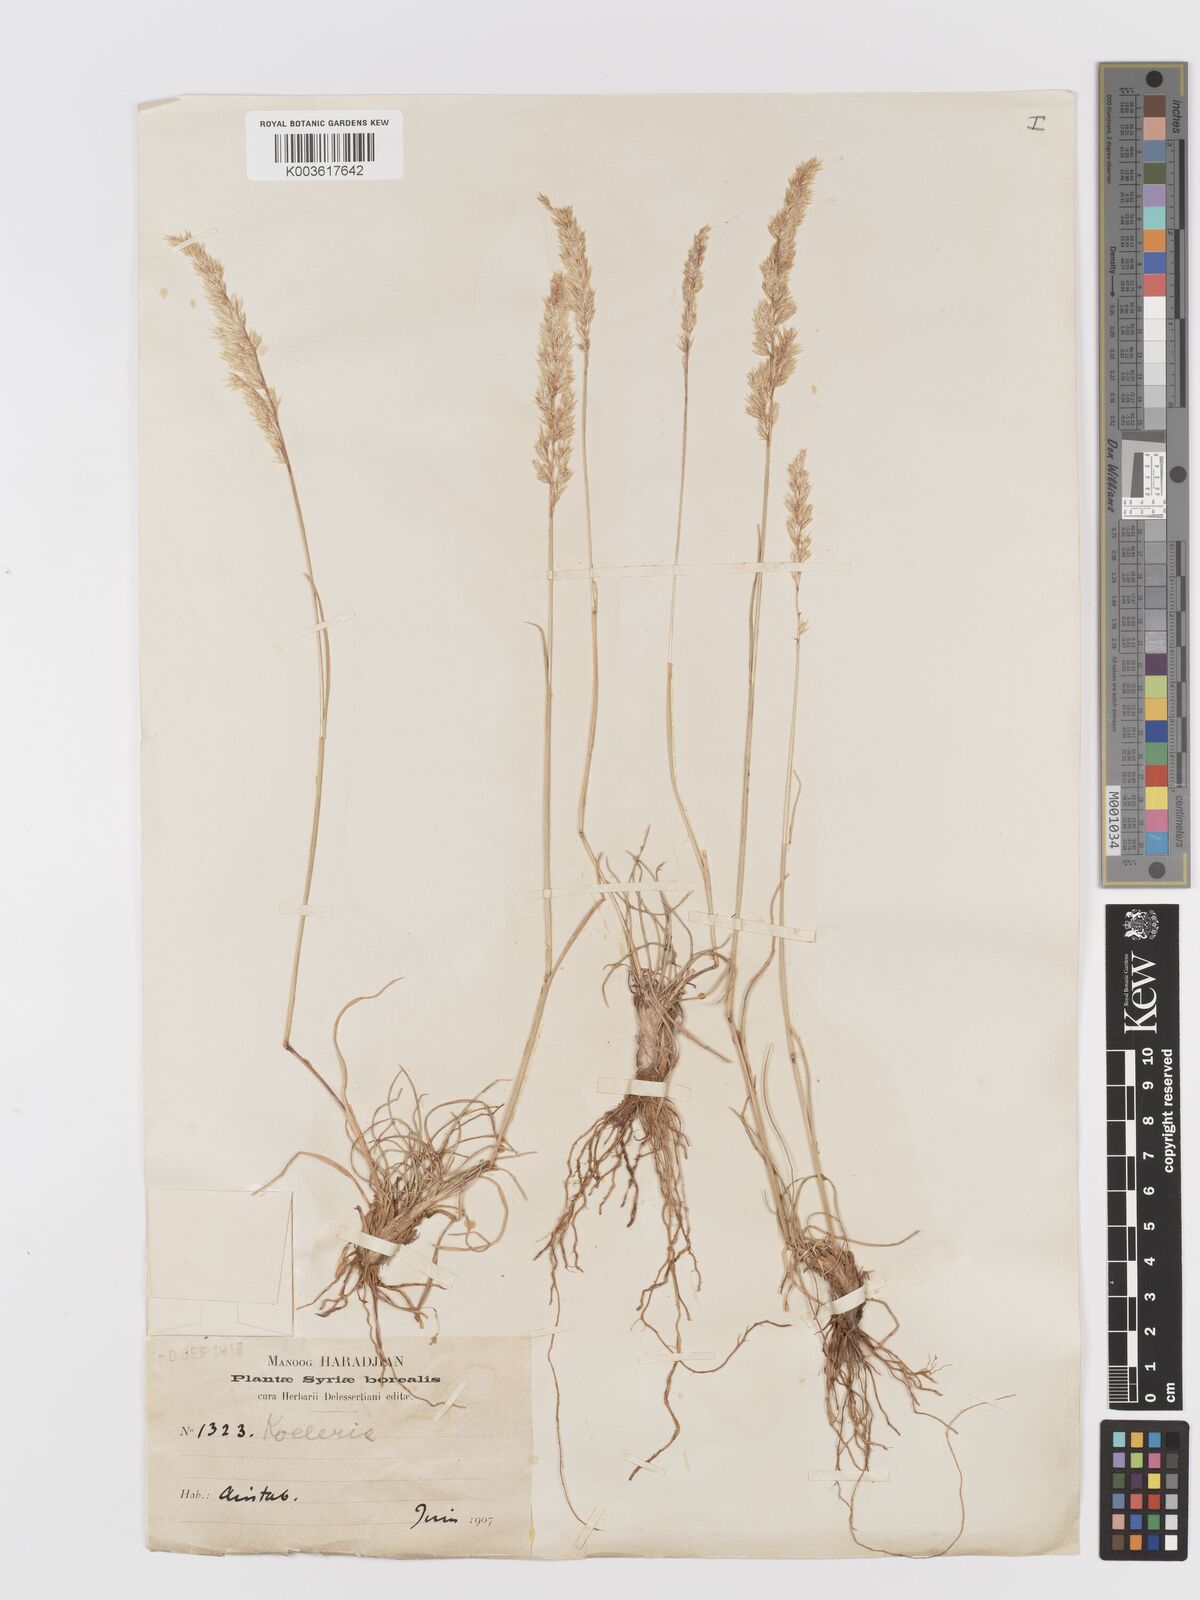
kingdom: Plantae
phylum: Tracheophyta
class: Liliopsida
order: Poales
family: Poaceae
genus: Koeleria
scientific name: Koeleria
